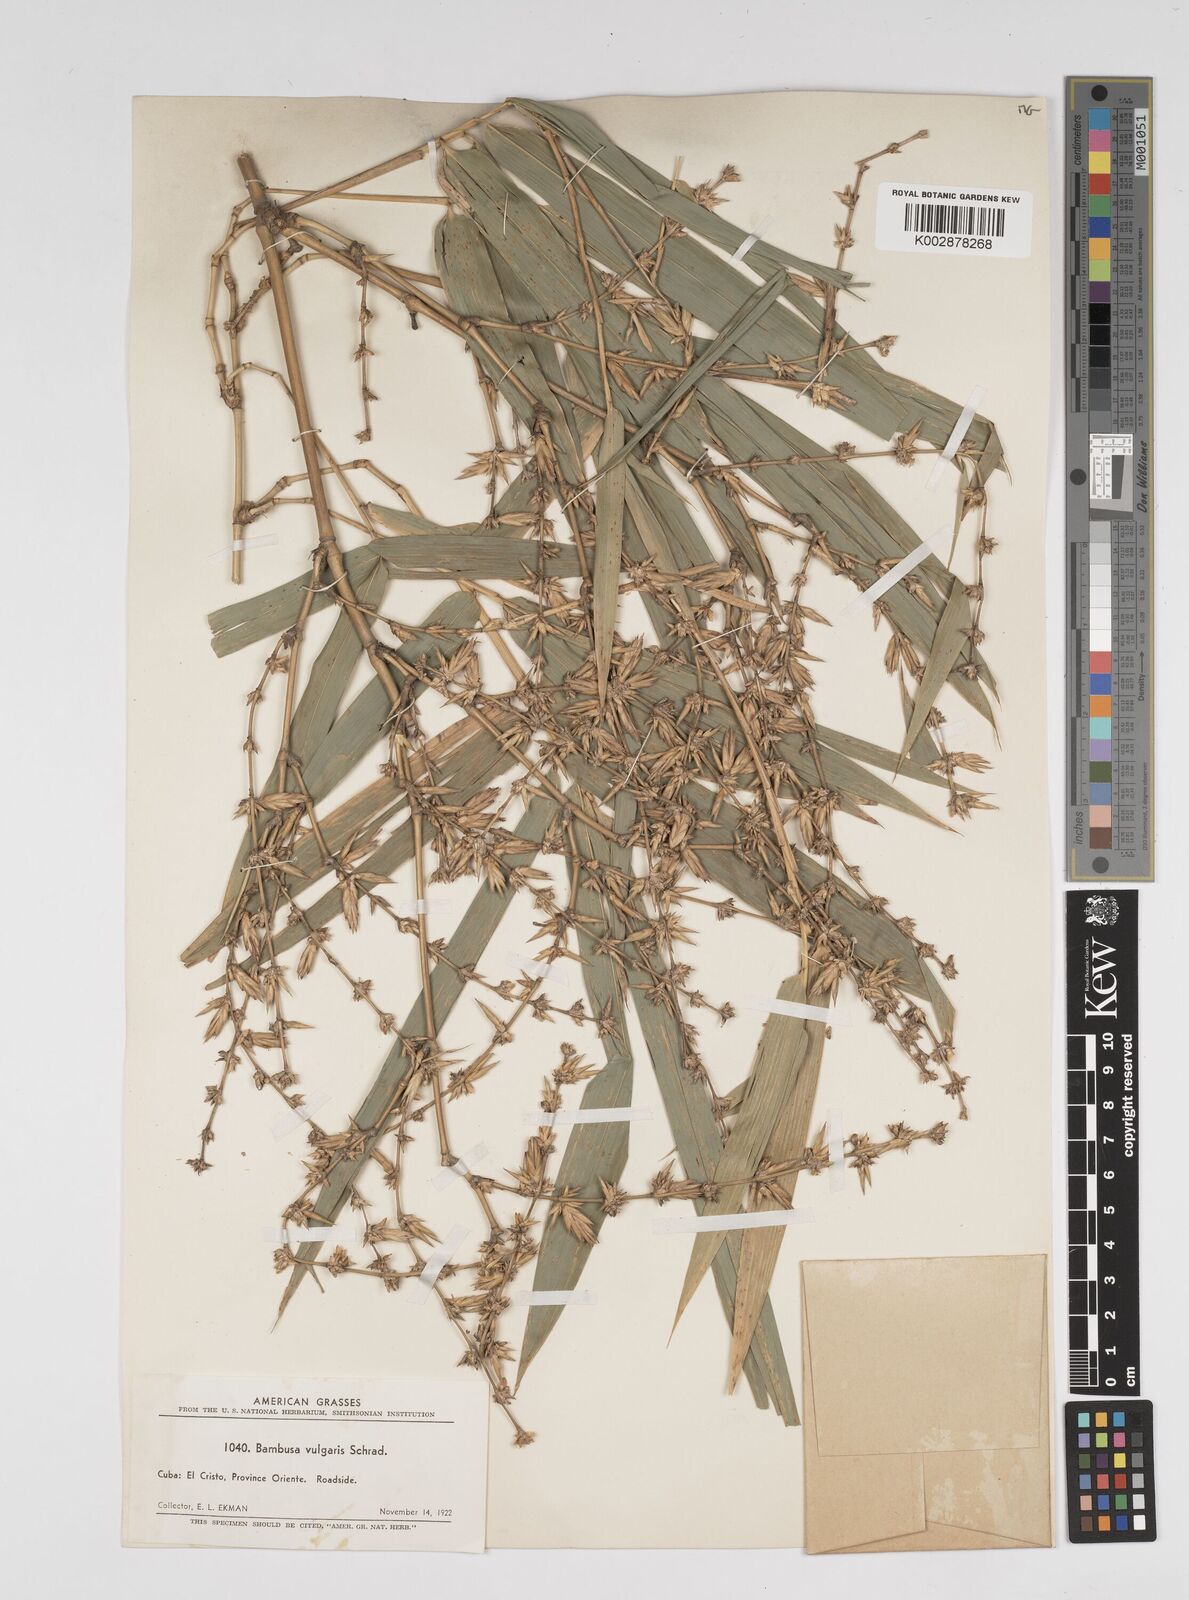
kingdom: Plantae
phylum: Tracheophyta
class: Liliopsida
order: Poales
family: Poaceae
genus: Bambusa
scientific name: Bambusa vulgaris
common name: Common bamboo
